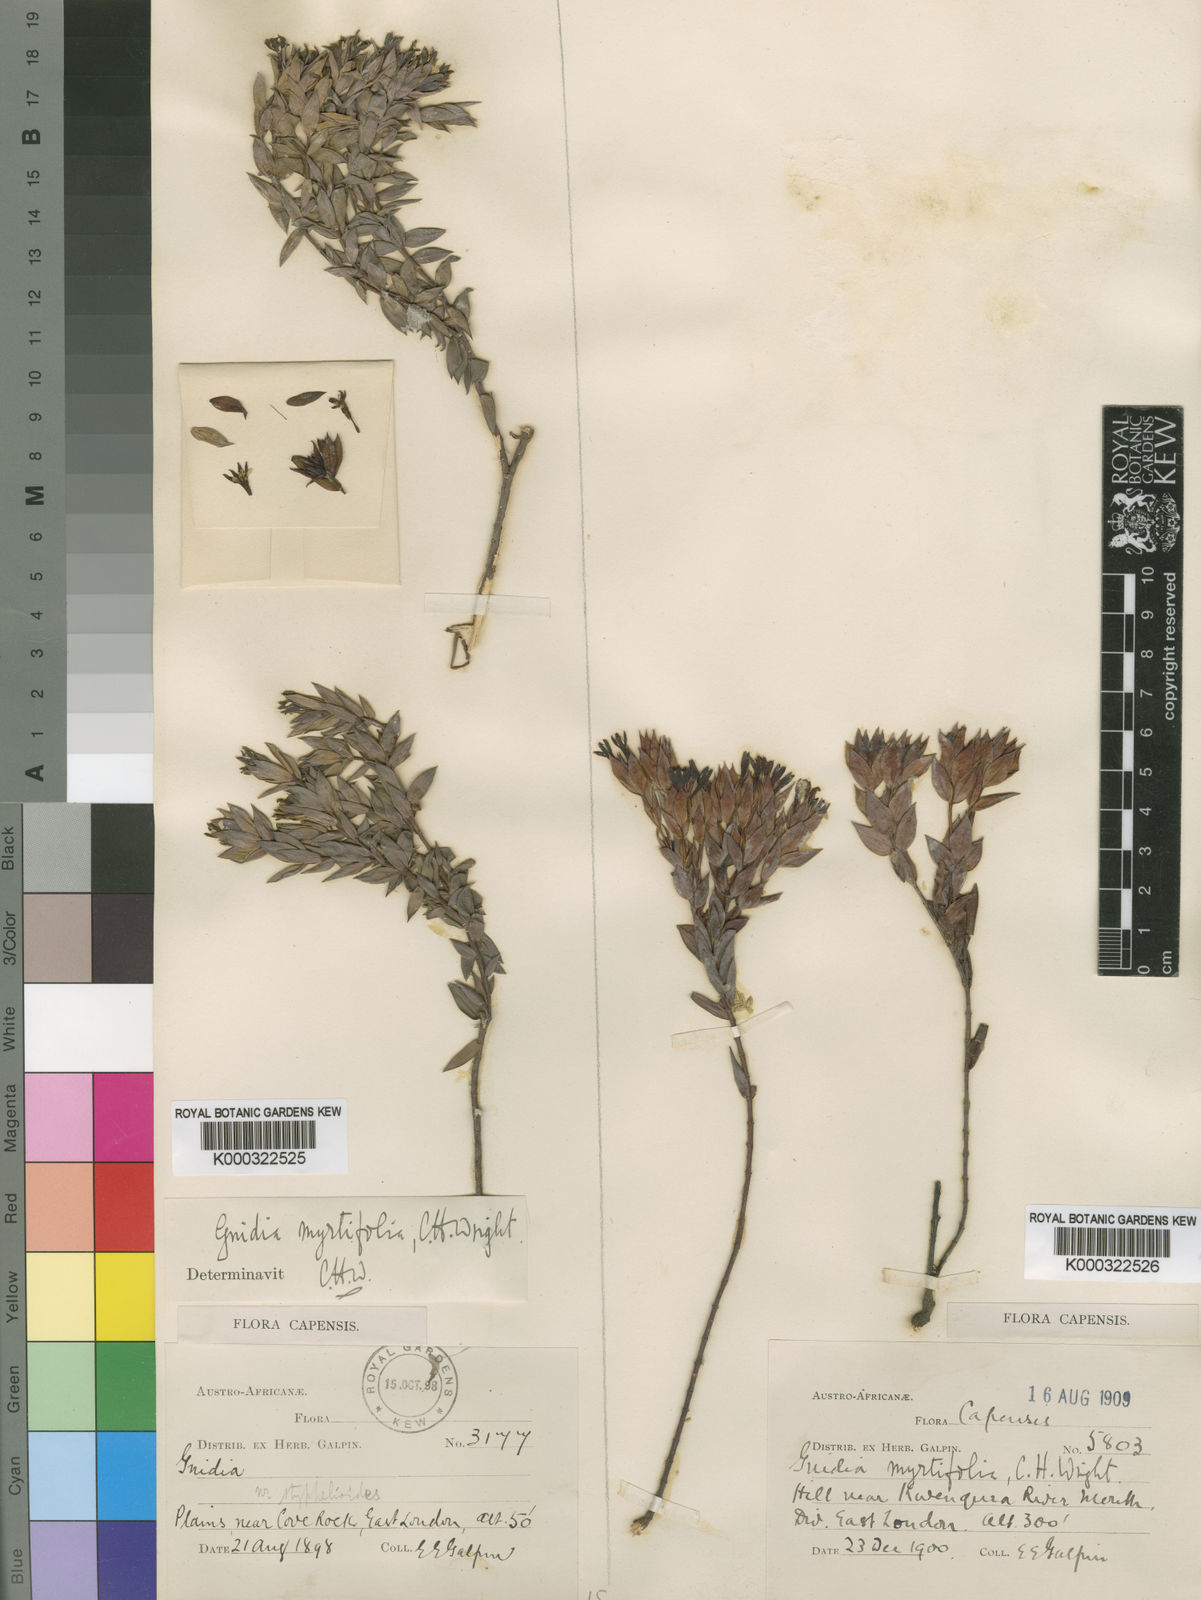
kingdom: Plantae
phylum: Tracheophyta
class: Magnoliopsida
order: Malvales
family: Thymelaeaceae
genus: Gnidia
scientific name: Gnidia
